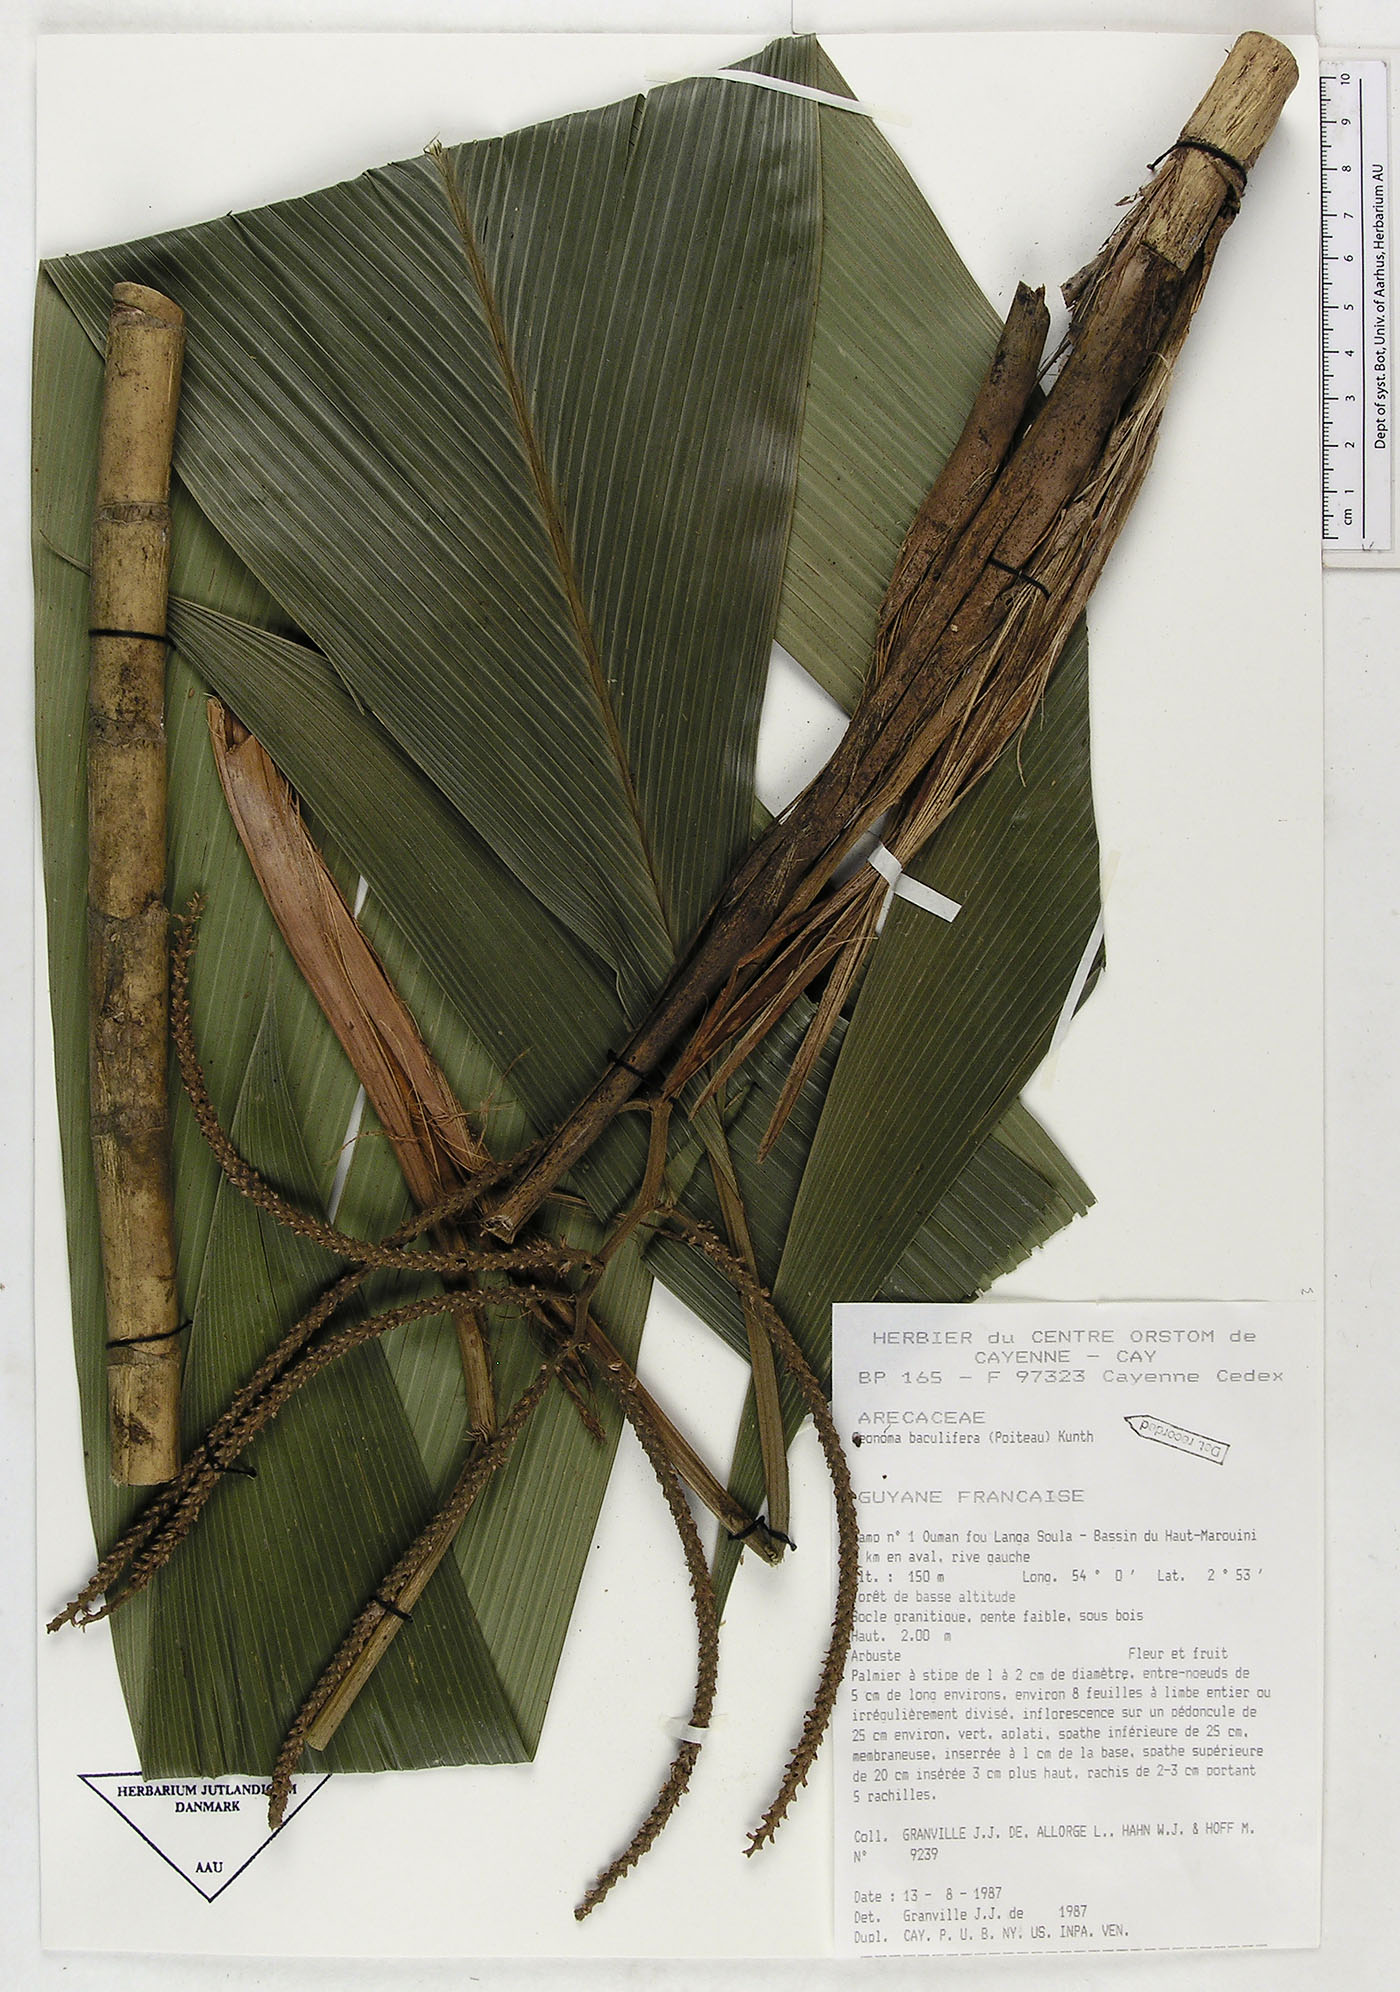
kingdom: Plantae
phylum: Tracheophyta
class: Liliopsida
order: Arecales
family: Arecaceae
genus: Geonoma
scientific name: Geonoma baculifera
